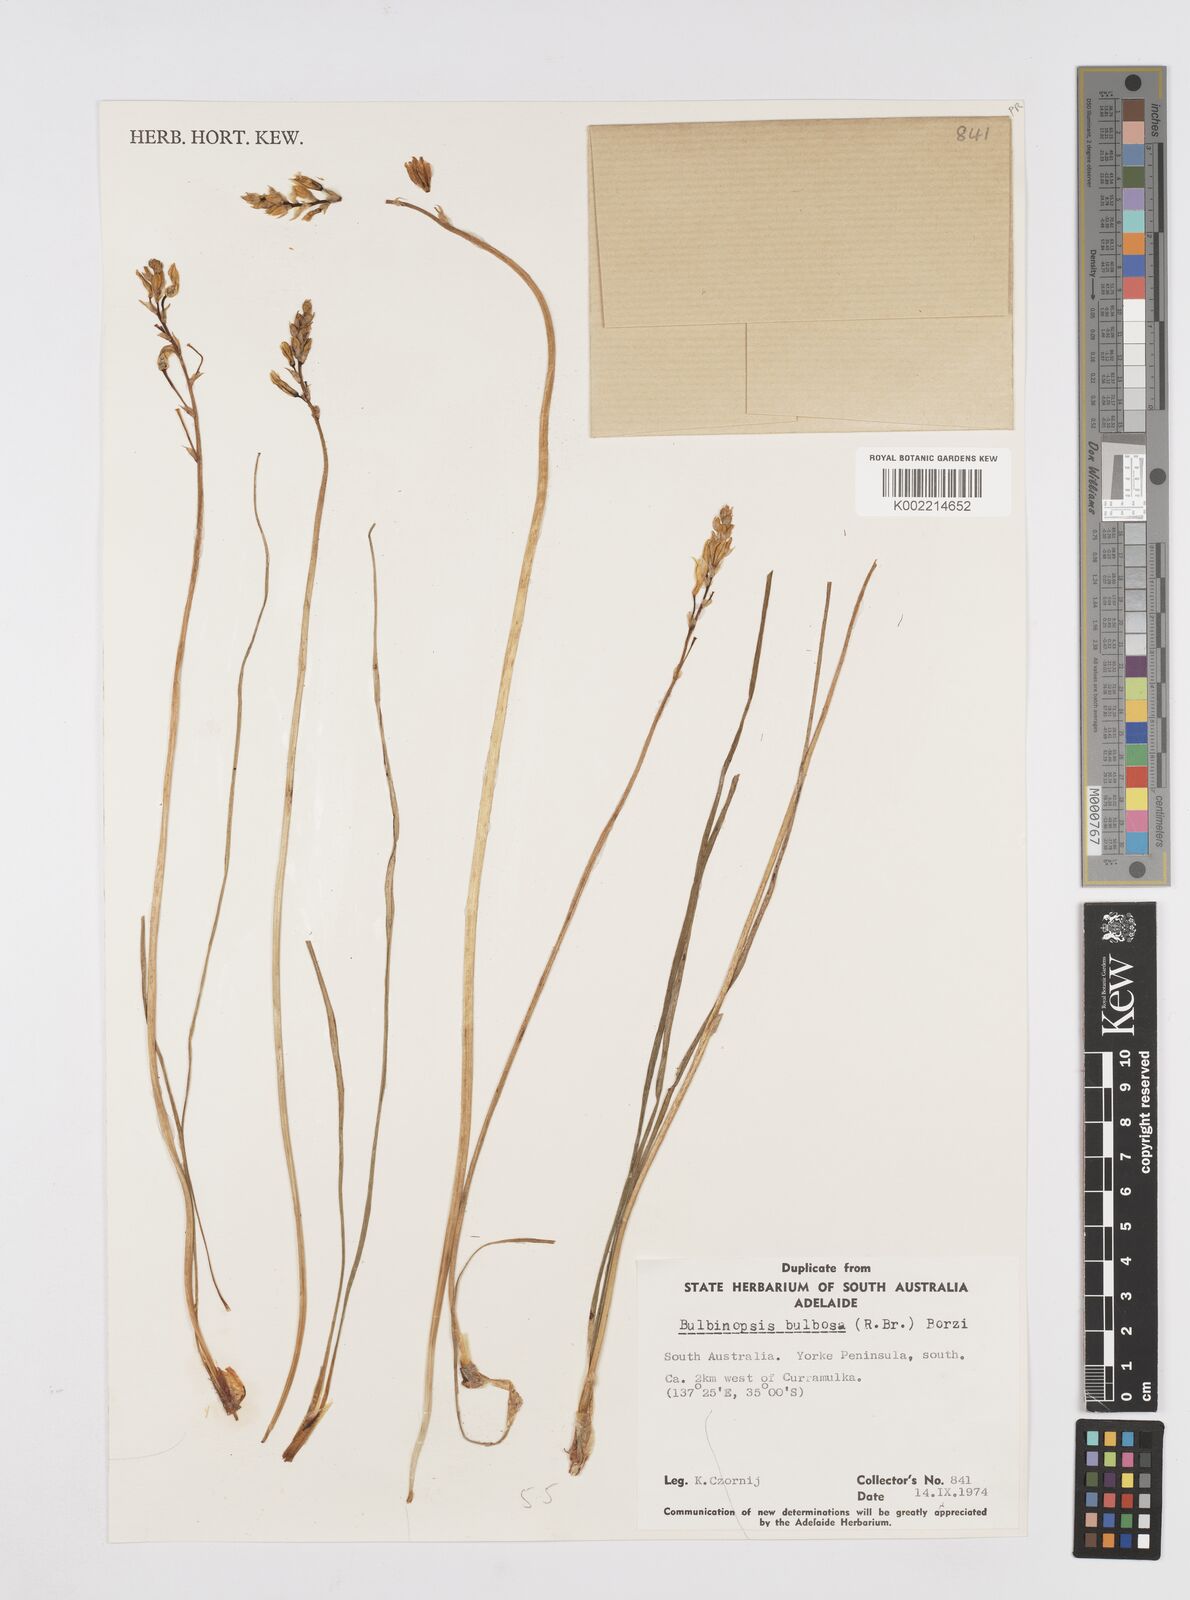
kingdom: Plantae
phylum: Tracheophyta
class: Liliopsida
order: Asparagales
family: Asphodelaceae
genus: Bulbine
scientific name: Bulbine bulbosa
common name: Golden-lily
